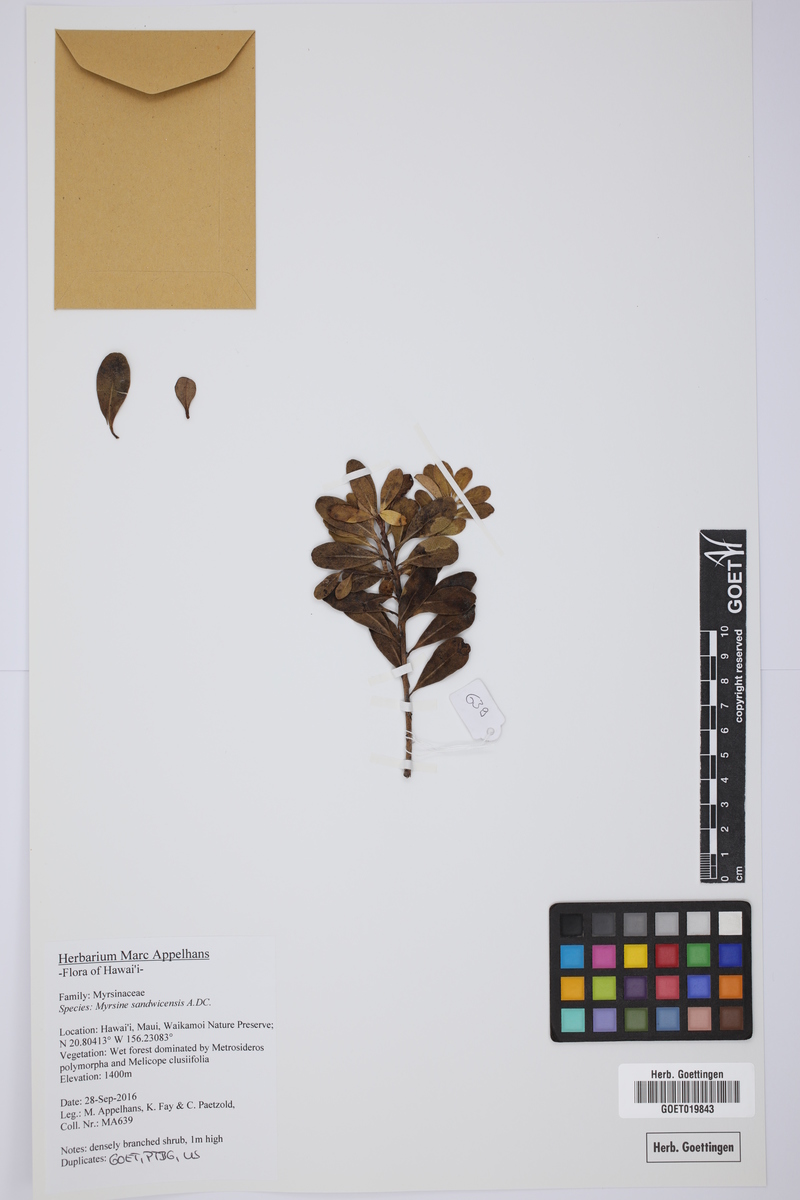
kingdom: Plantae
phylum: Tracheophyta
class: Magnoliopsida
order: Ericales
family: Primulaceae
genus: Myrsine
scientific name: Myrsine sandwicensis
